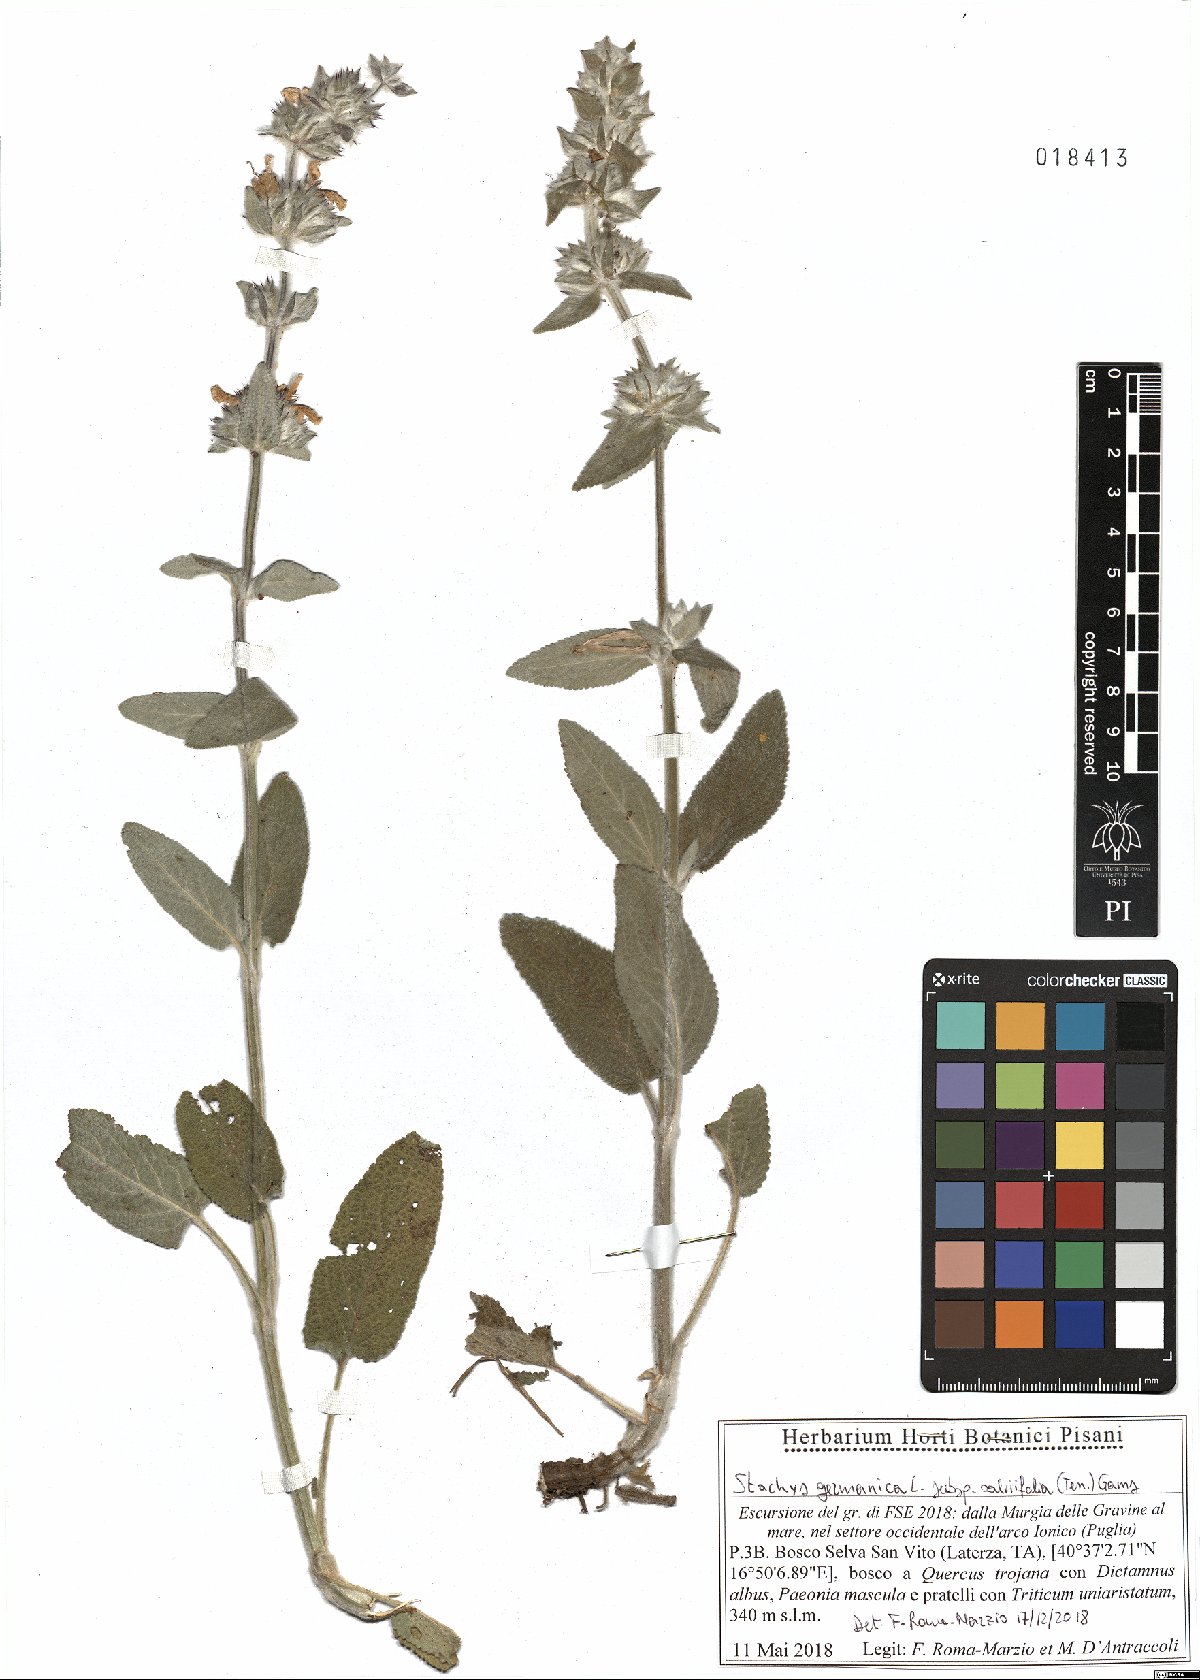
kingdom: Plantae
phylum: Tracheophyta
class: Magnoliopsida
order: Lamiales
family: Lamiaceae
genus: Stachys
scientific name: Stachys cretica
